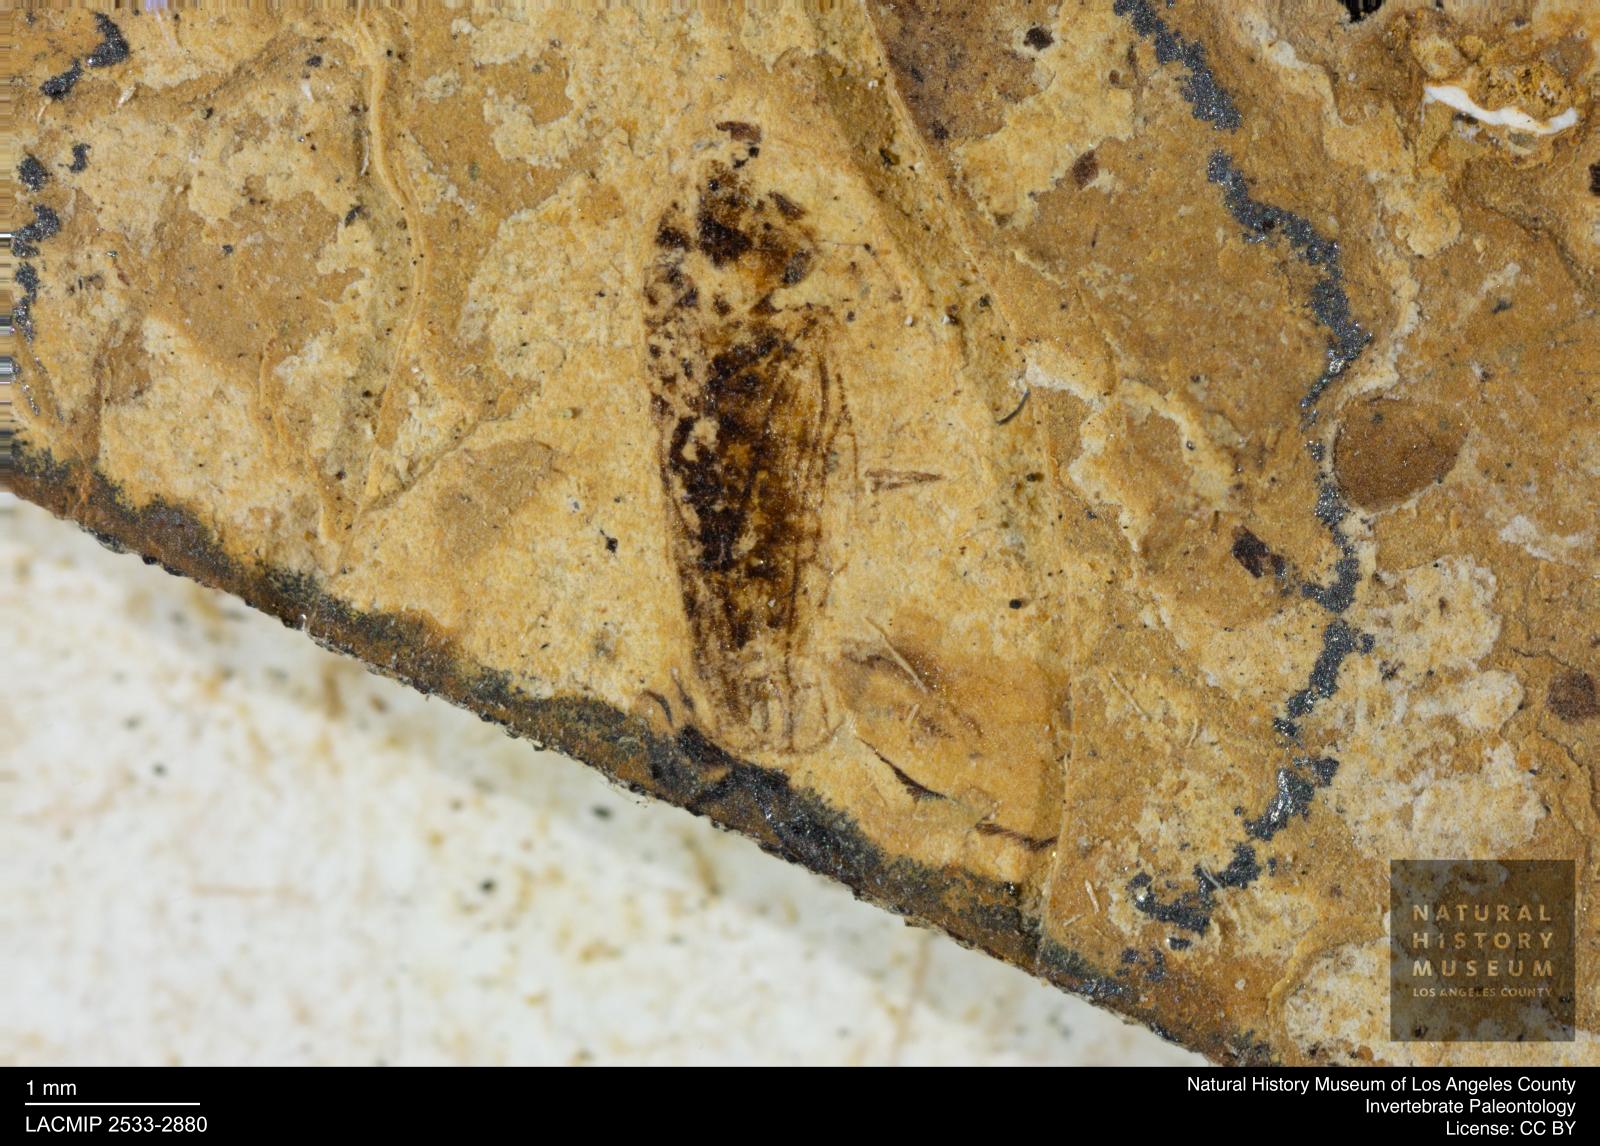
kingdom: Animalia
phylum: Arthropoda
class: Insecta
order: Hemiptera
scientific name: Hemiptera
